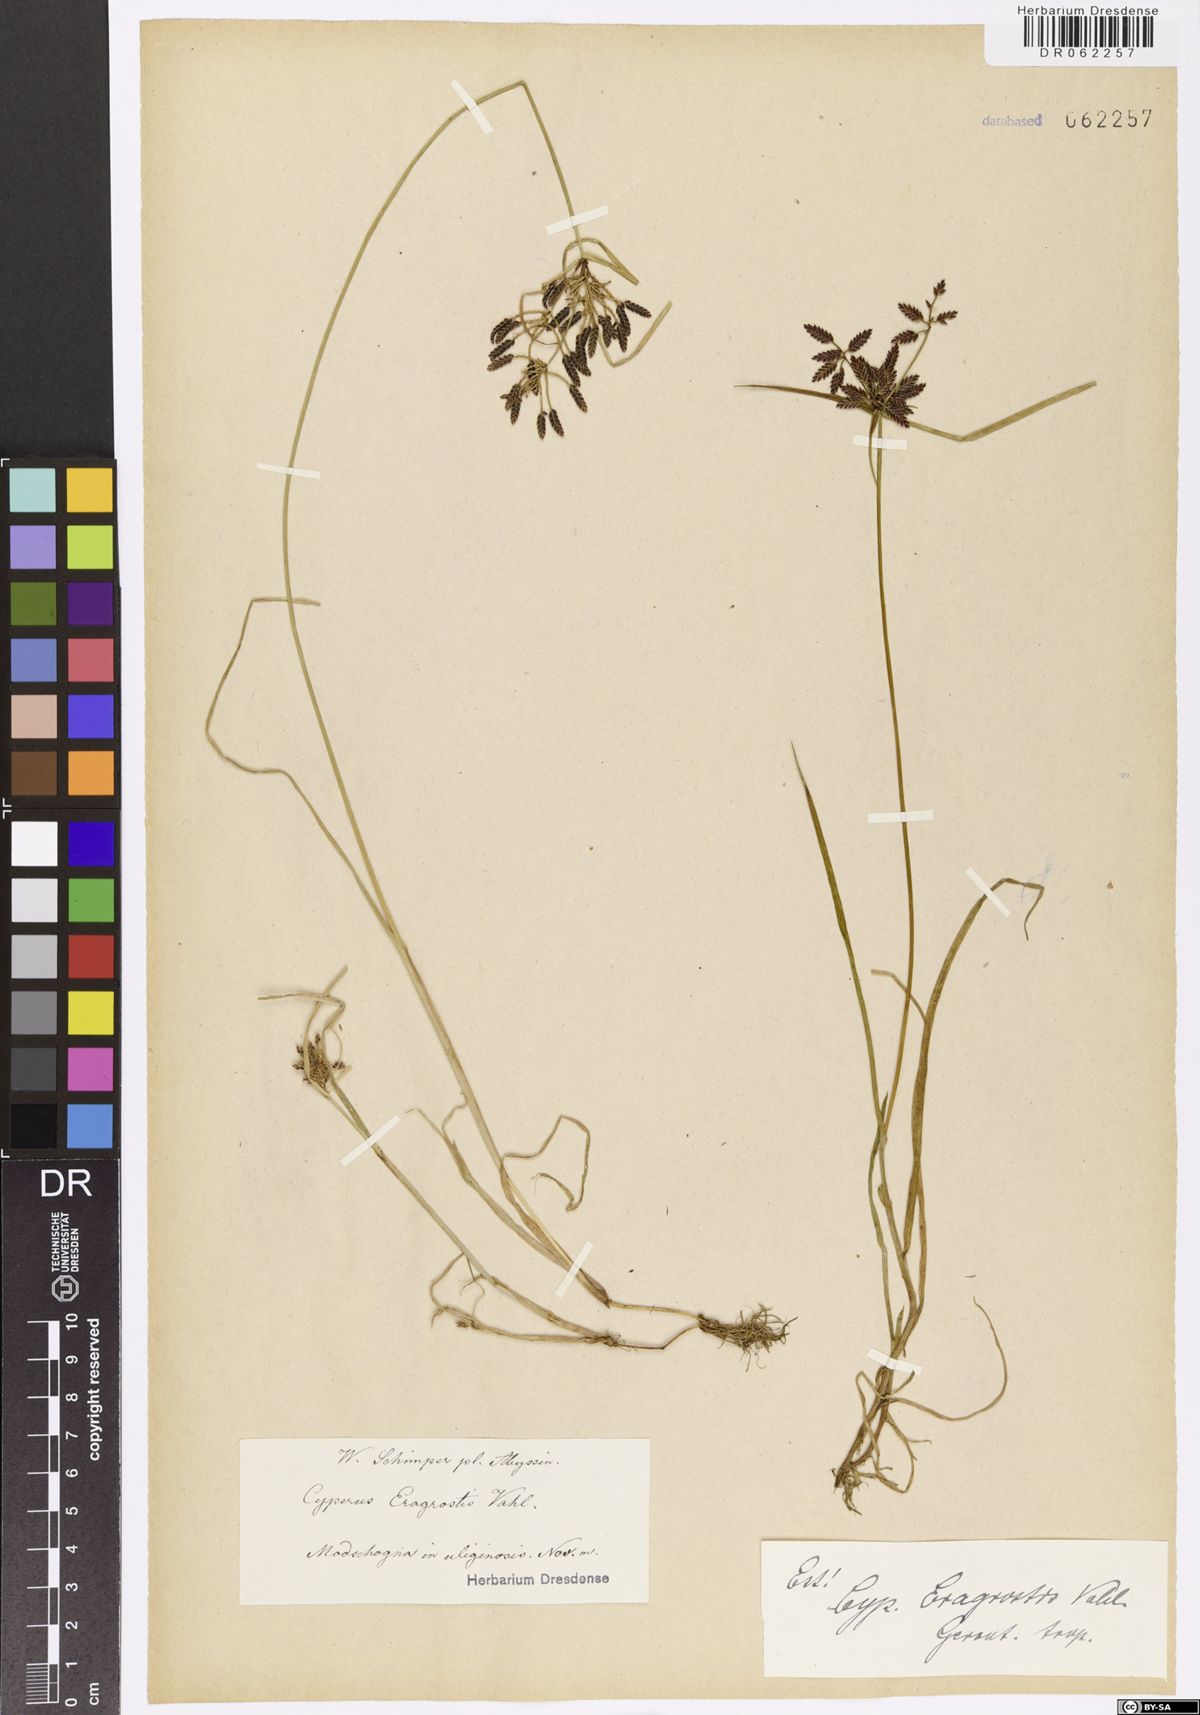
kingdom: Plantae
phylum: Tracheophyta
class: Liliopsida
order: Poales
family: Cyperaceae
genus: Cyperus
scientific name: Cyperus eragrostis
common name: Tall flatsedge
